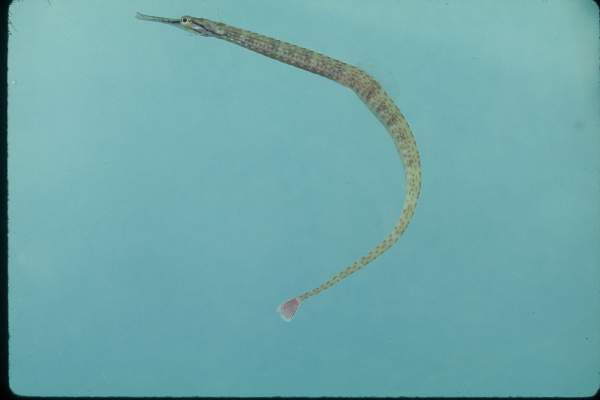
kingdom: Animalia
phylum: Chordata
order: Syngnathiformes
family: Syngnathidae
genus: Corythoichthys
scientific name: Corythoichthys schultzi
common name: Guilded pipefish
